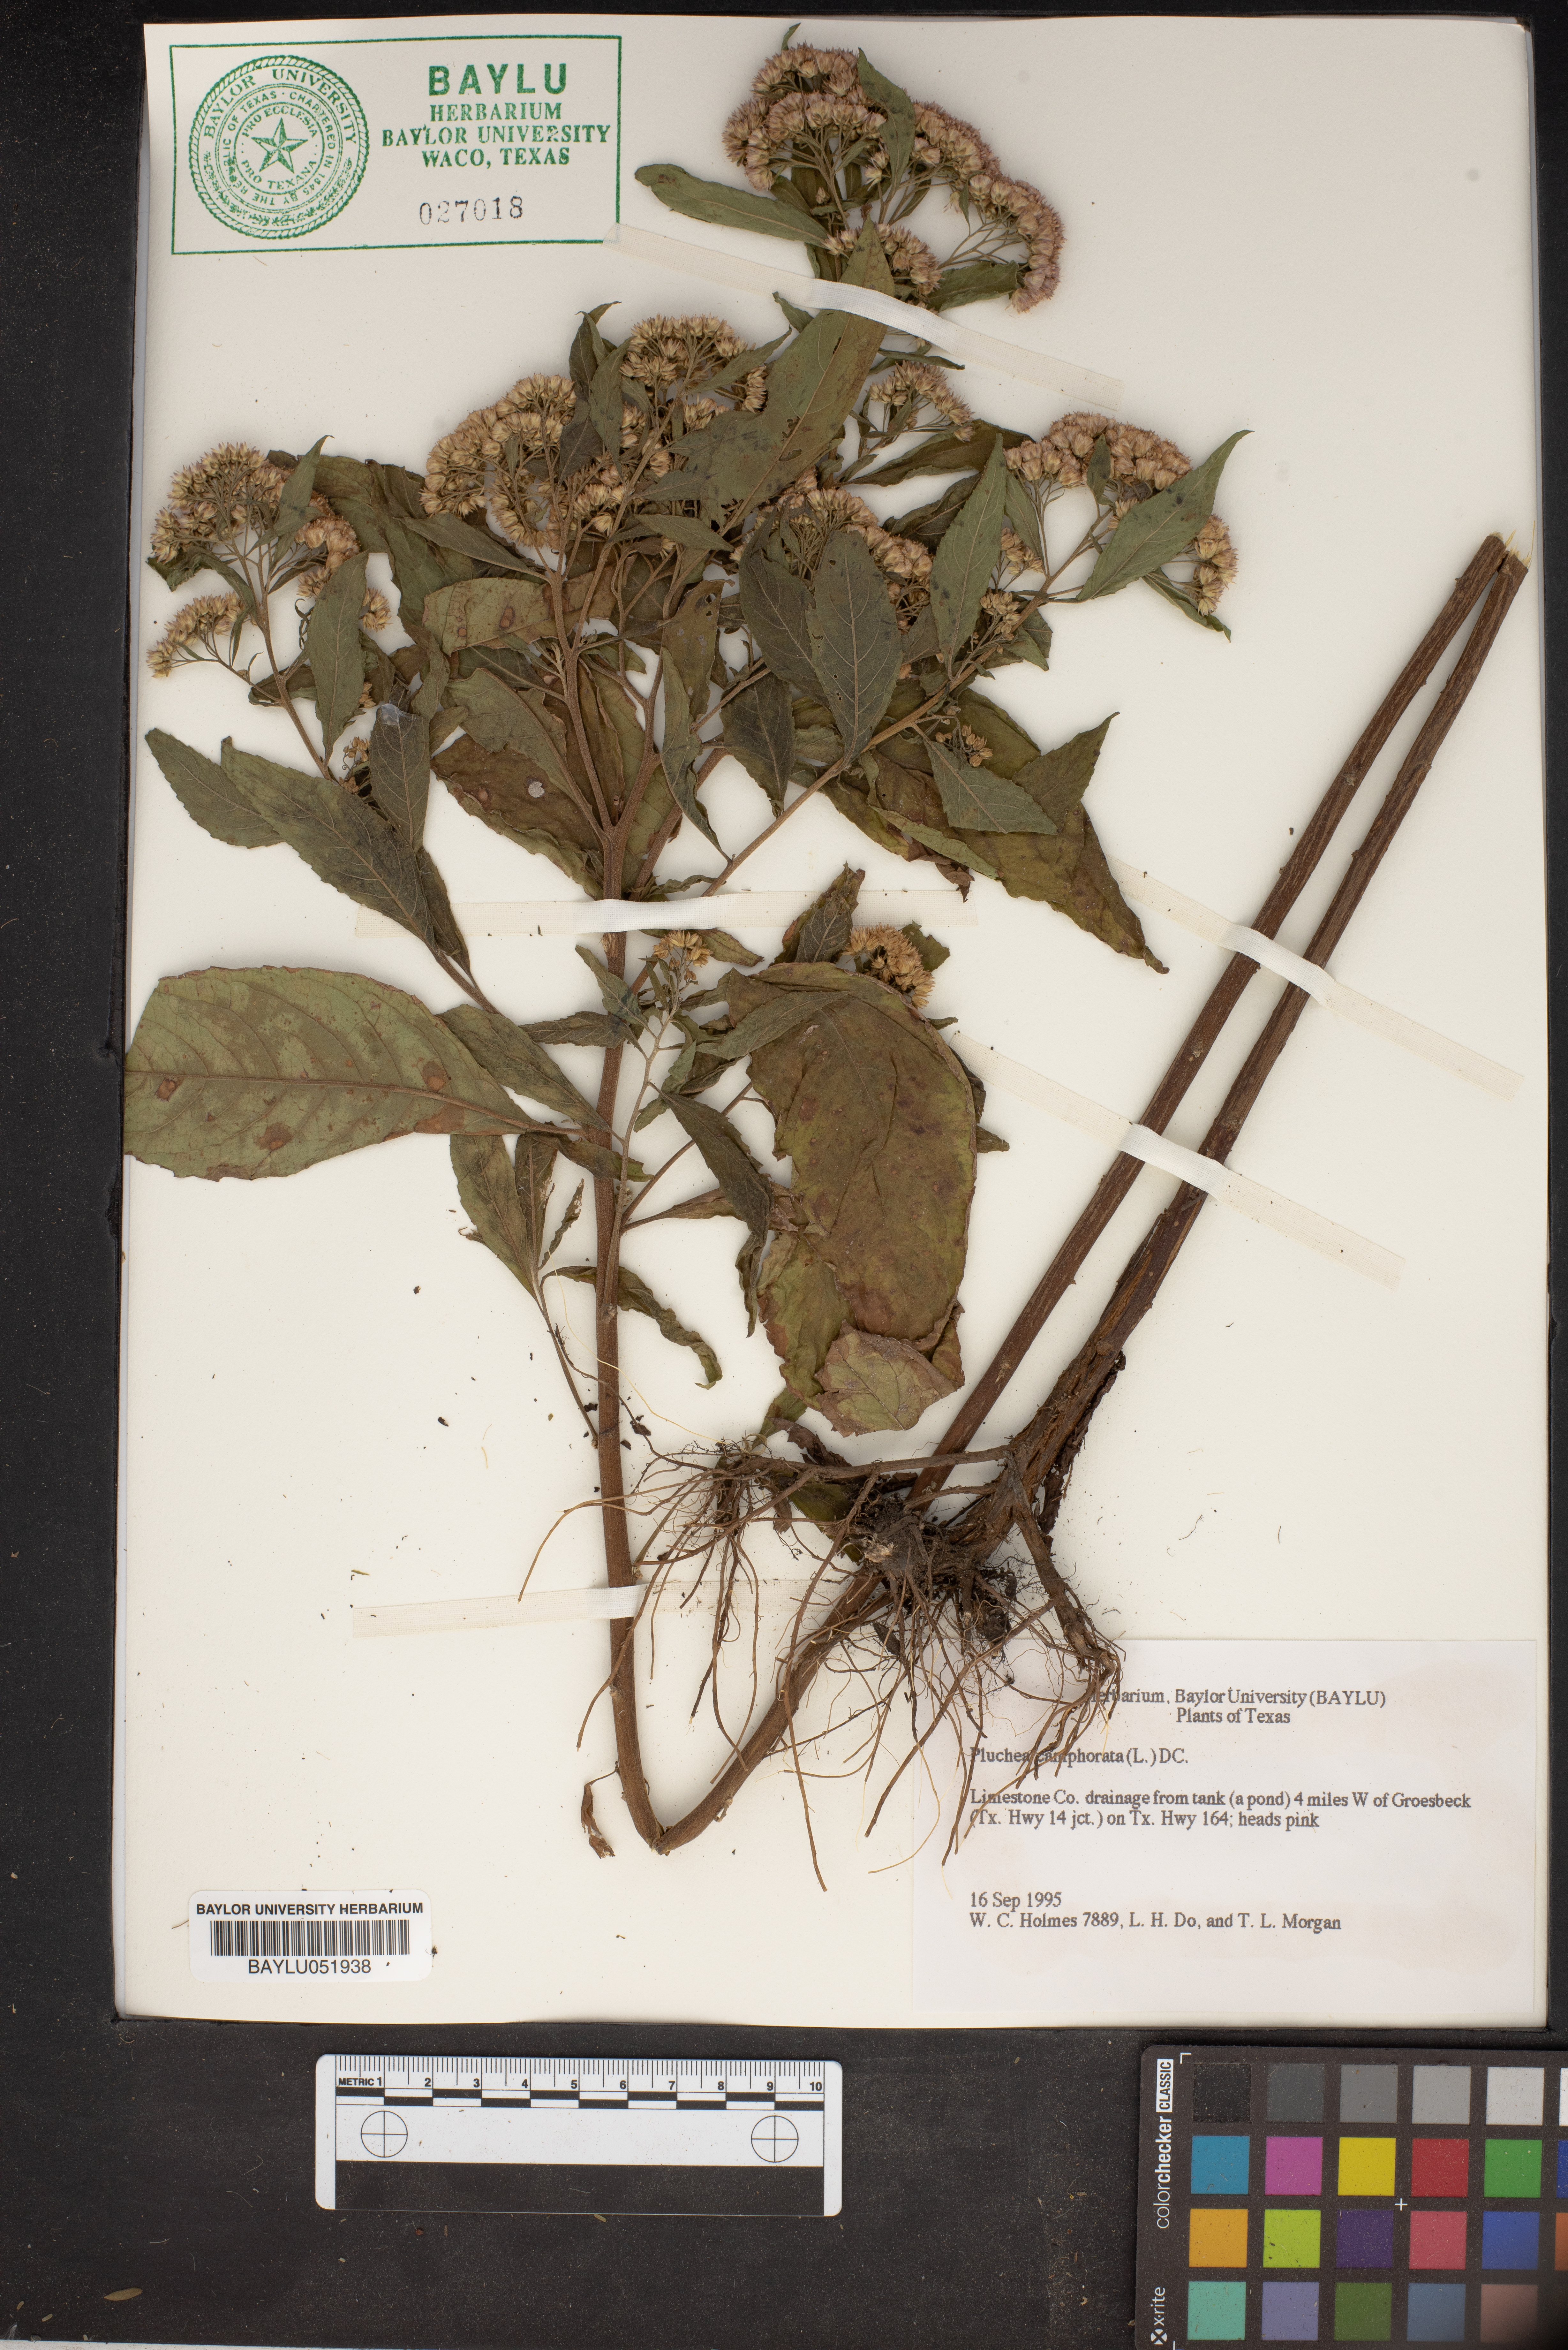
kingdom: Plantae
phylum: Tracheophyta
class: Magnoliopsida
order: Asterales
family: Asteraceae
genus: Pluchea
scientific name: Pluchea camphorata
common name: Camphor pluchea
